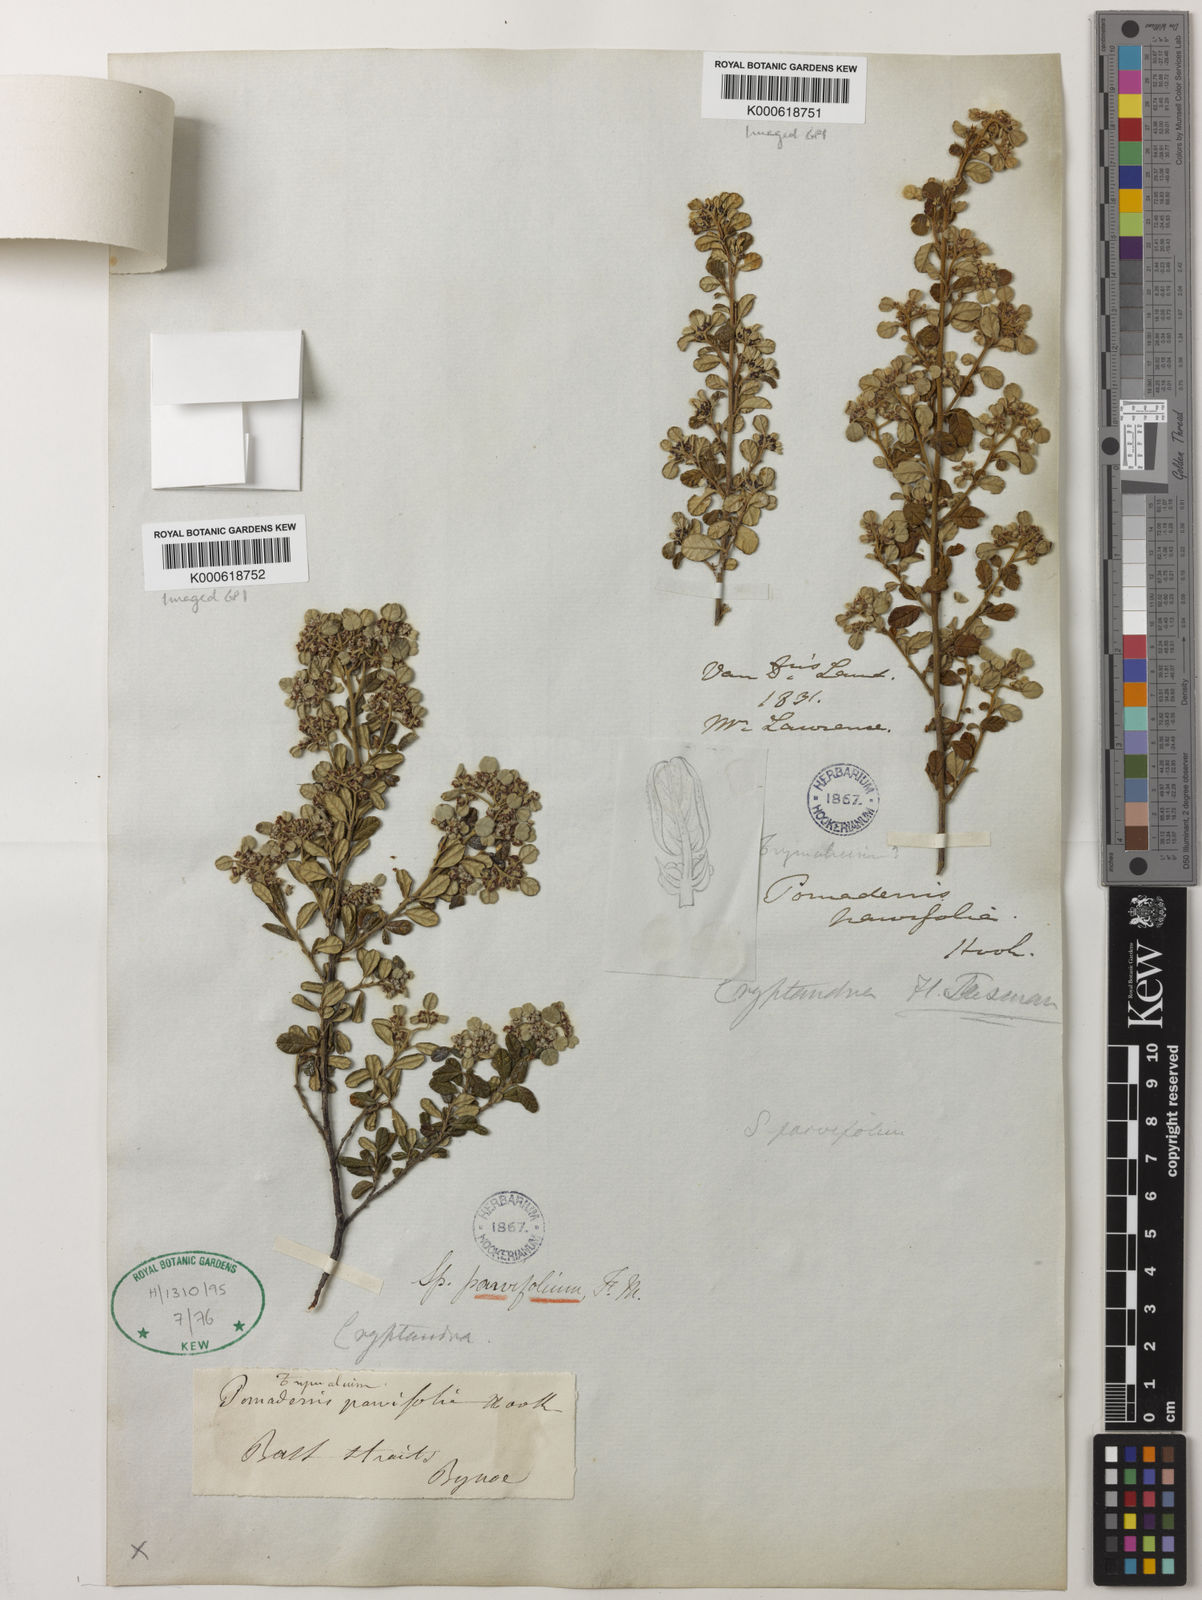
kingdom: Plantae
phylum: Tracheophyta
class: Magnoliopsida
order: Rosales
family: Rhamnaceae
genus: Spyridium
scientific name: Spyridium parvifolium
